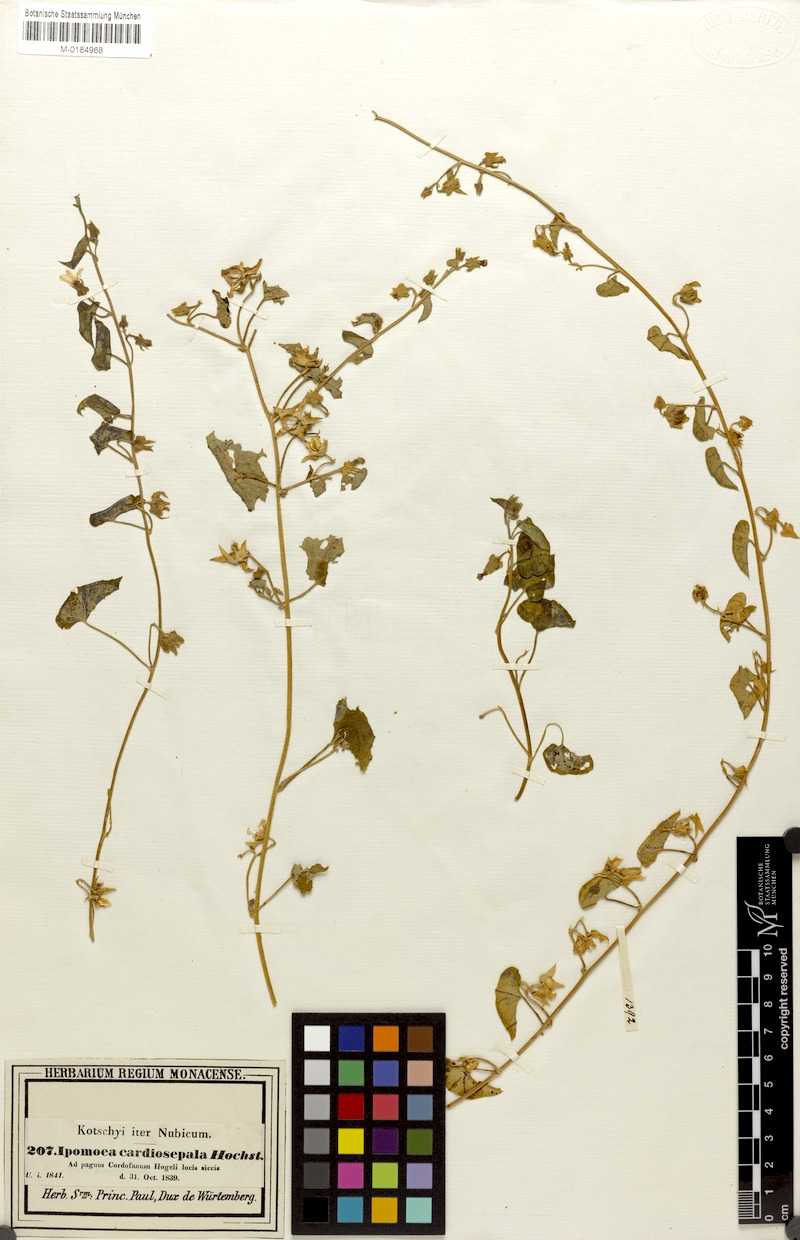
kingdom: Plantae
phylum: Tracheophyta
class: Magnoliopsida
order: Solanales
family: Convolvulaceae
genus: Ipomoea
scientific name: Ipomoea sinensis
